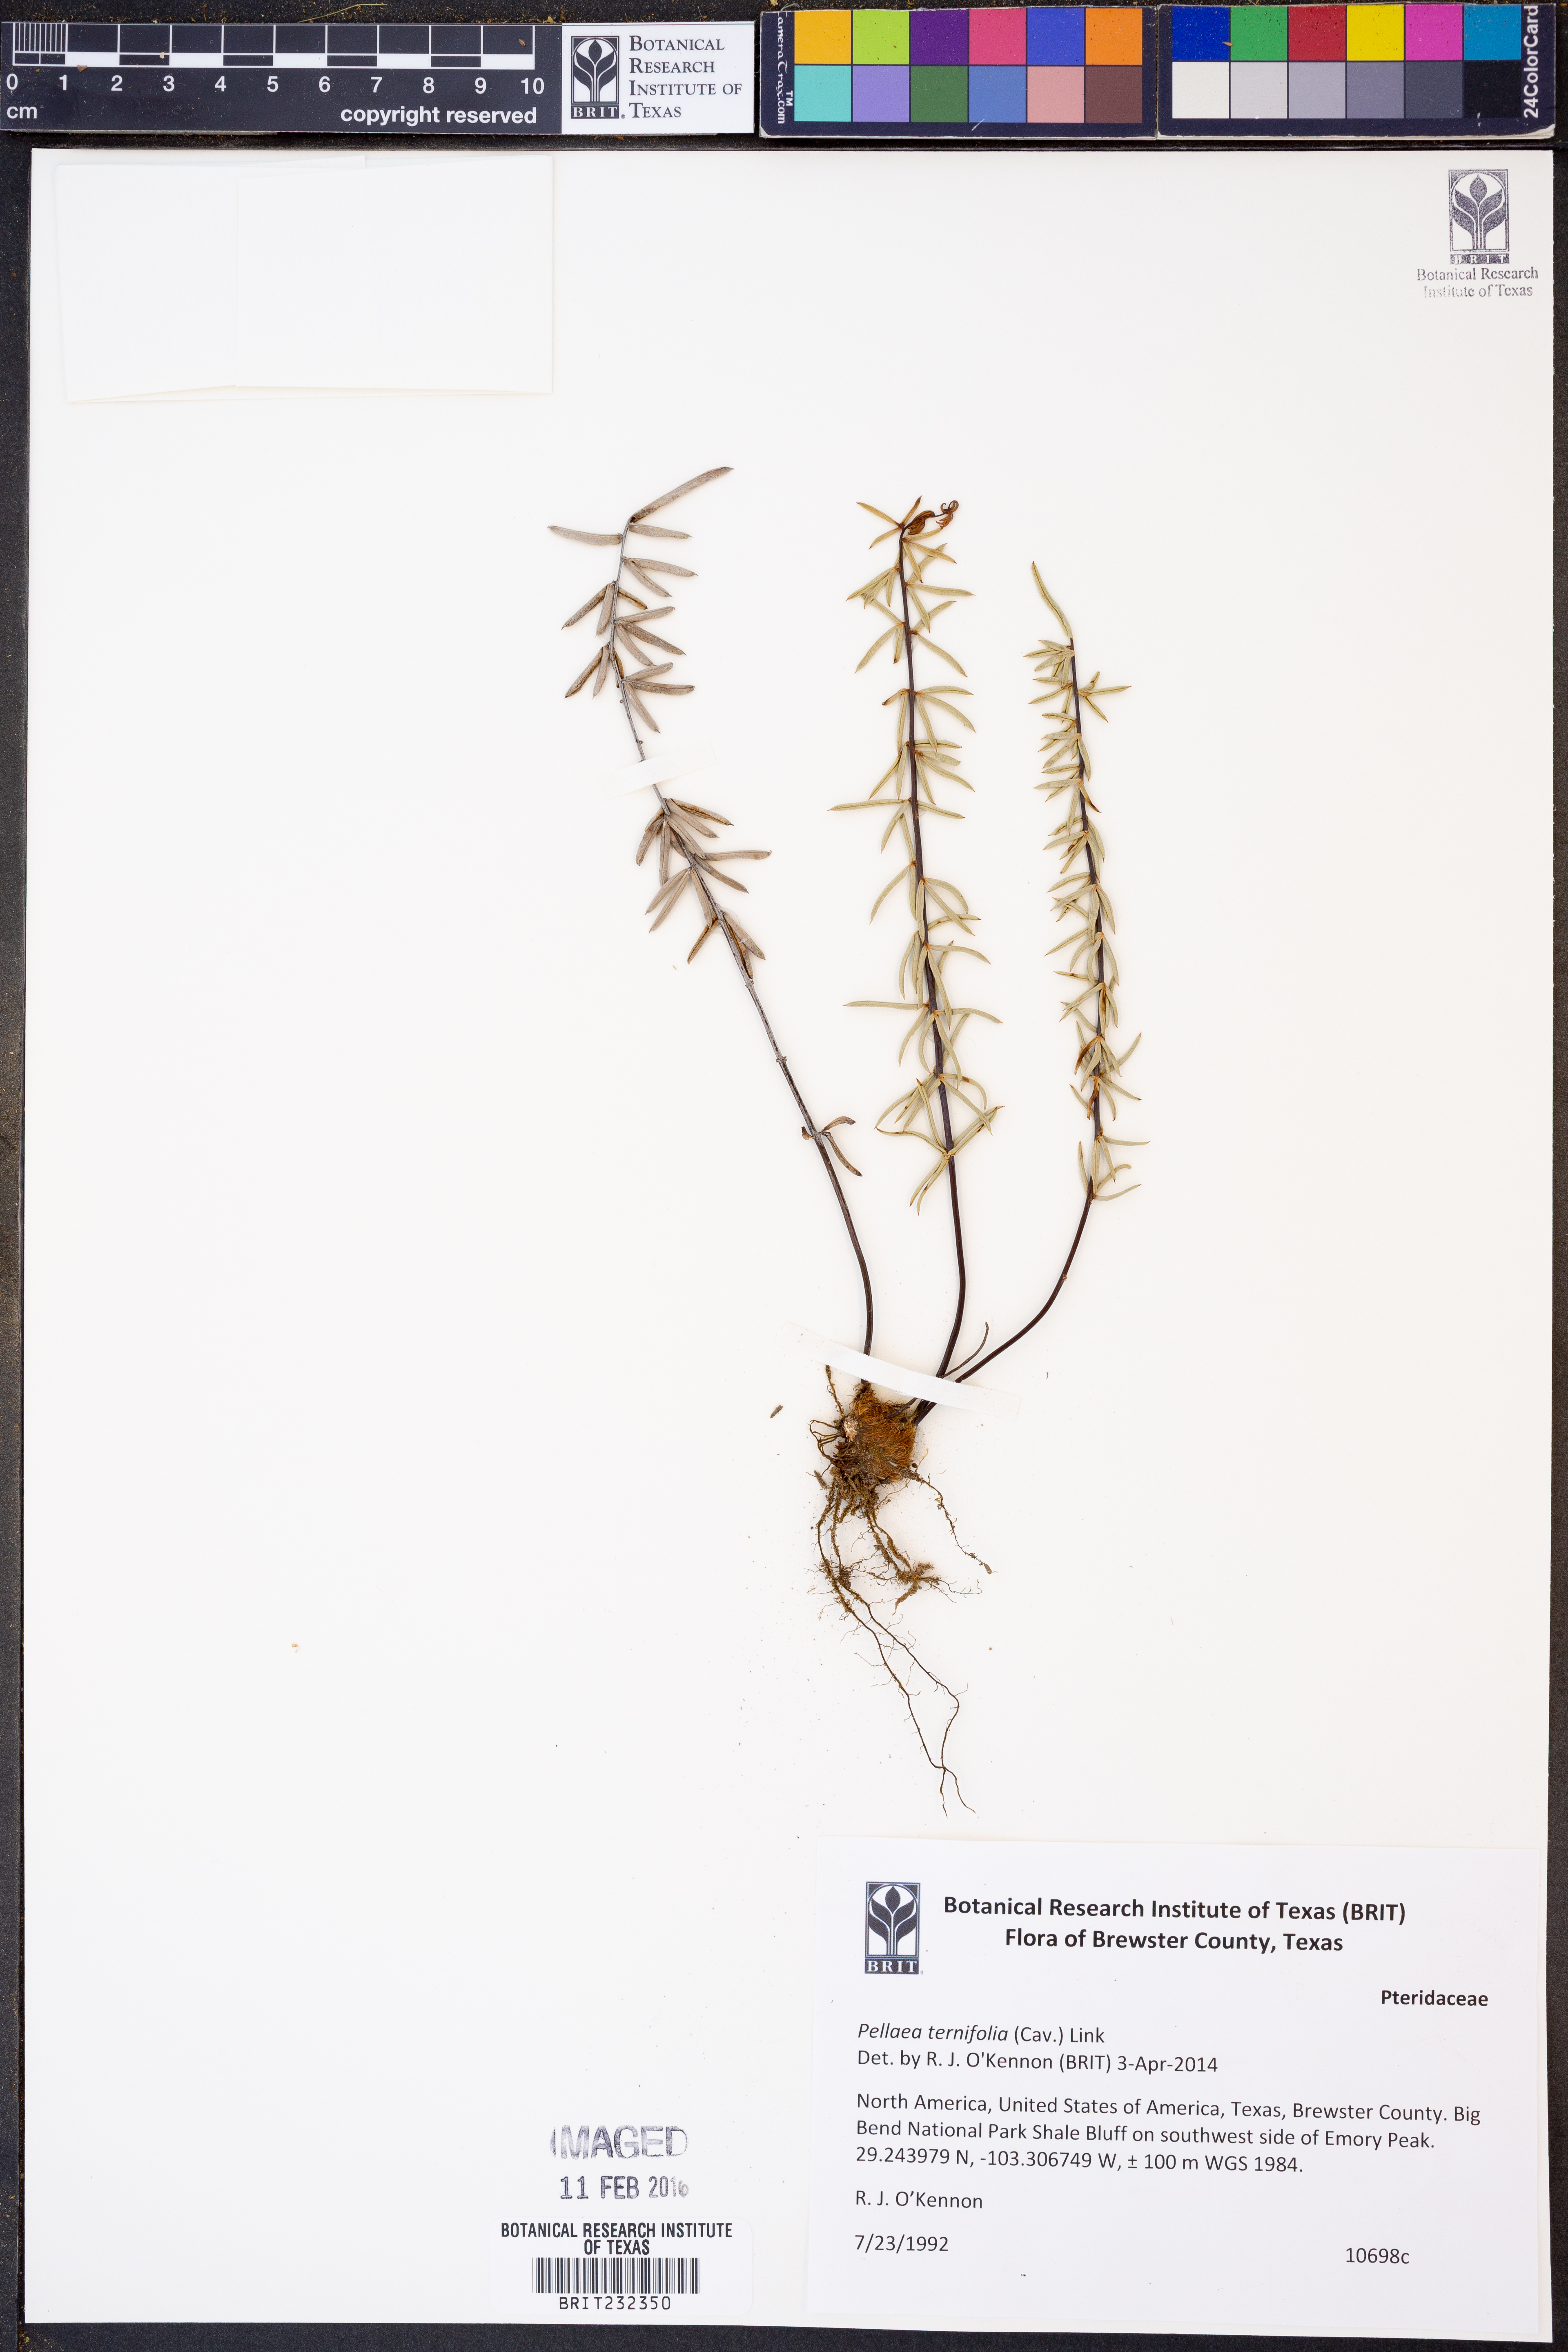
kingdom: Plantae
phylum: Tracheophyta
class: Polypodiopsida
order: Polypodiales
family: Pteridaceae
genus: Pellaea
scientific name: Pellaea ternifolia
